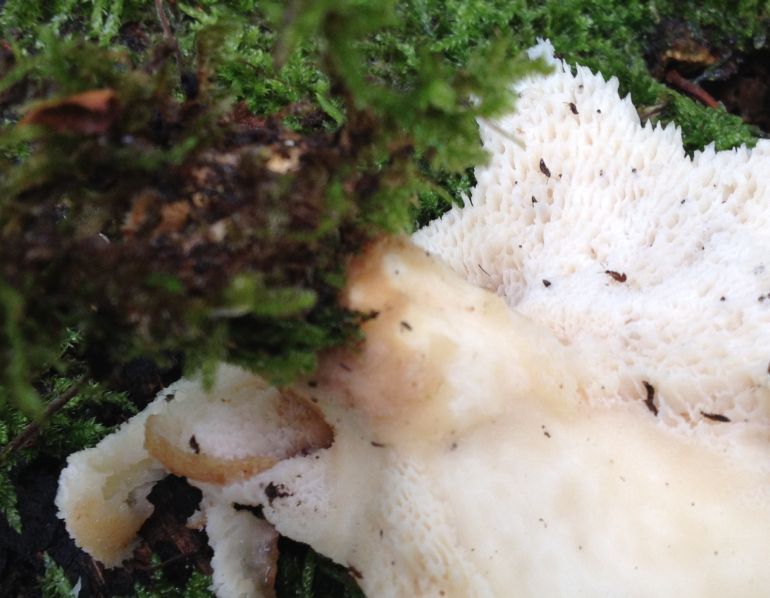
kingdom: Fungi
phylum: Basidiomycota
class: Agaricomycetes
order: Polyporales
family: Polyporaceae
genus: Polyporus
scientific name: Polyporus tuberaster
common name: knoldet stilkporesvamp
